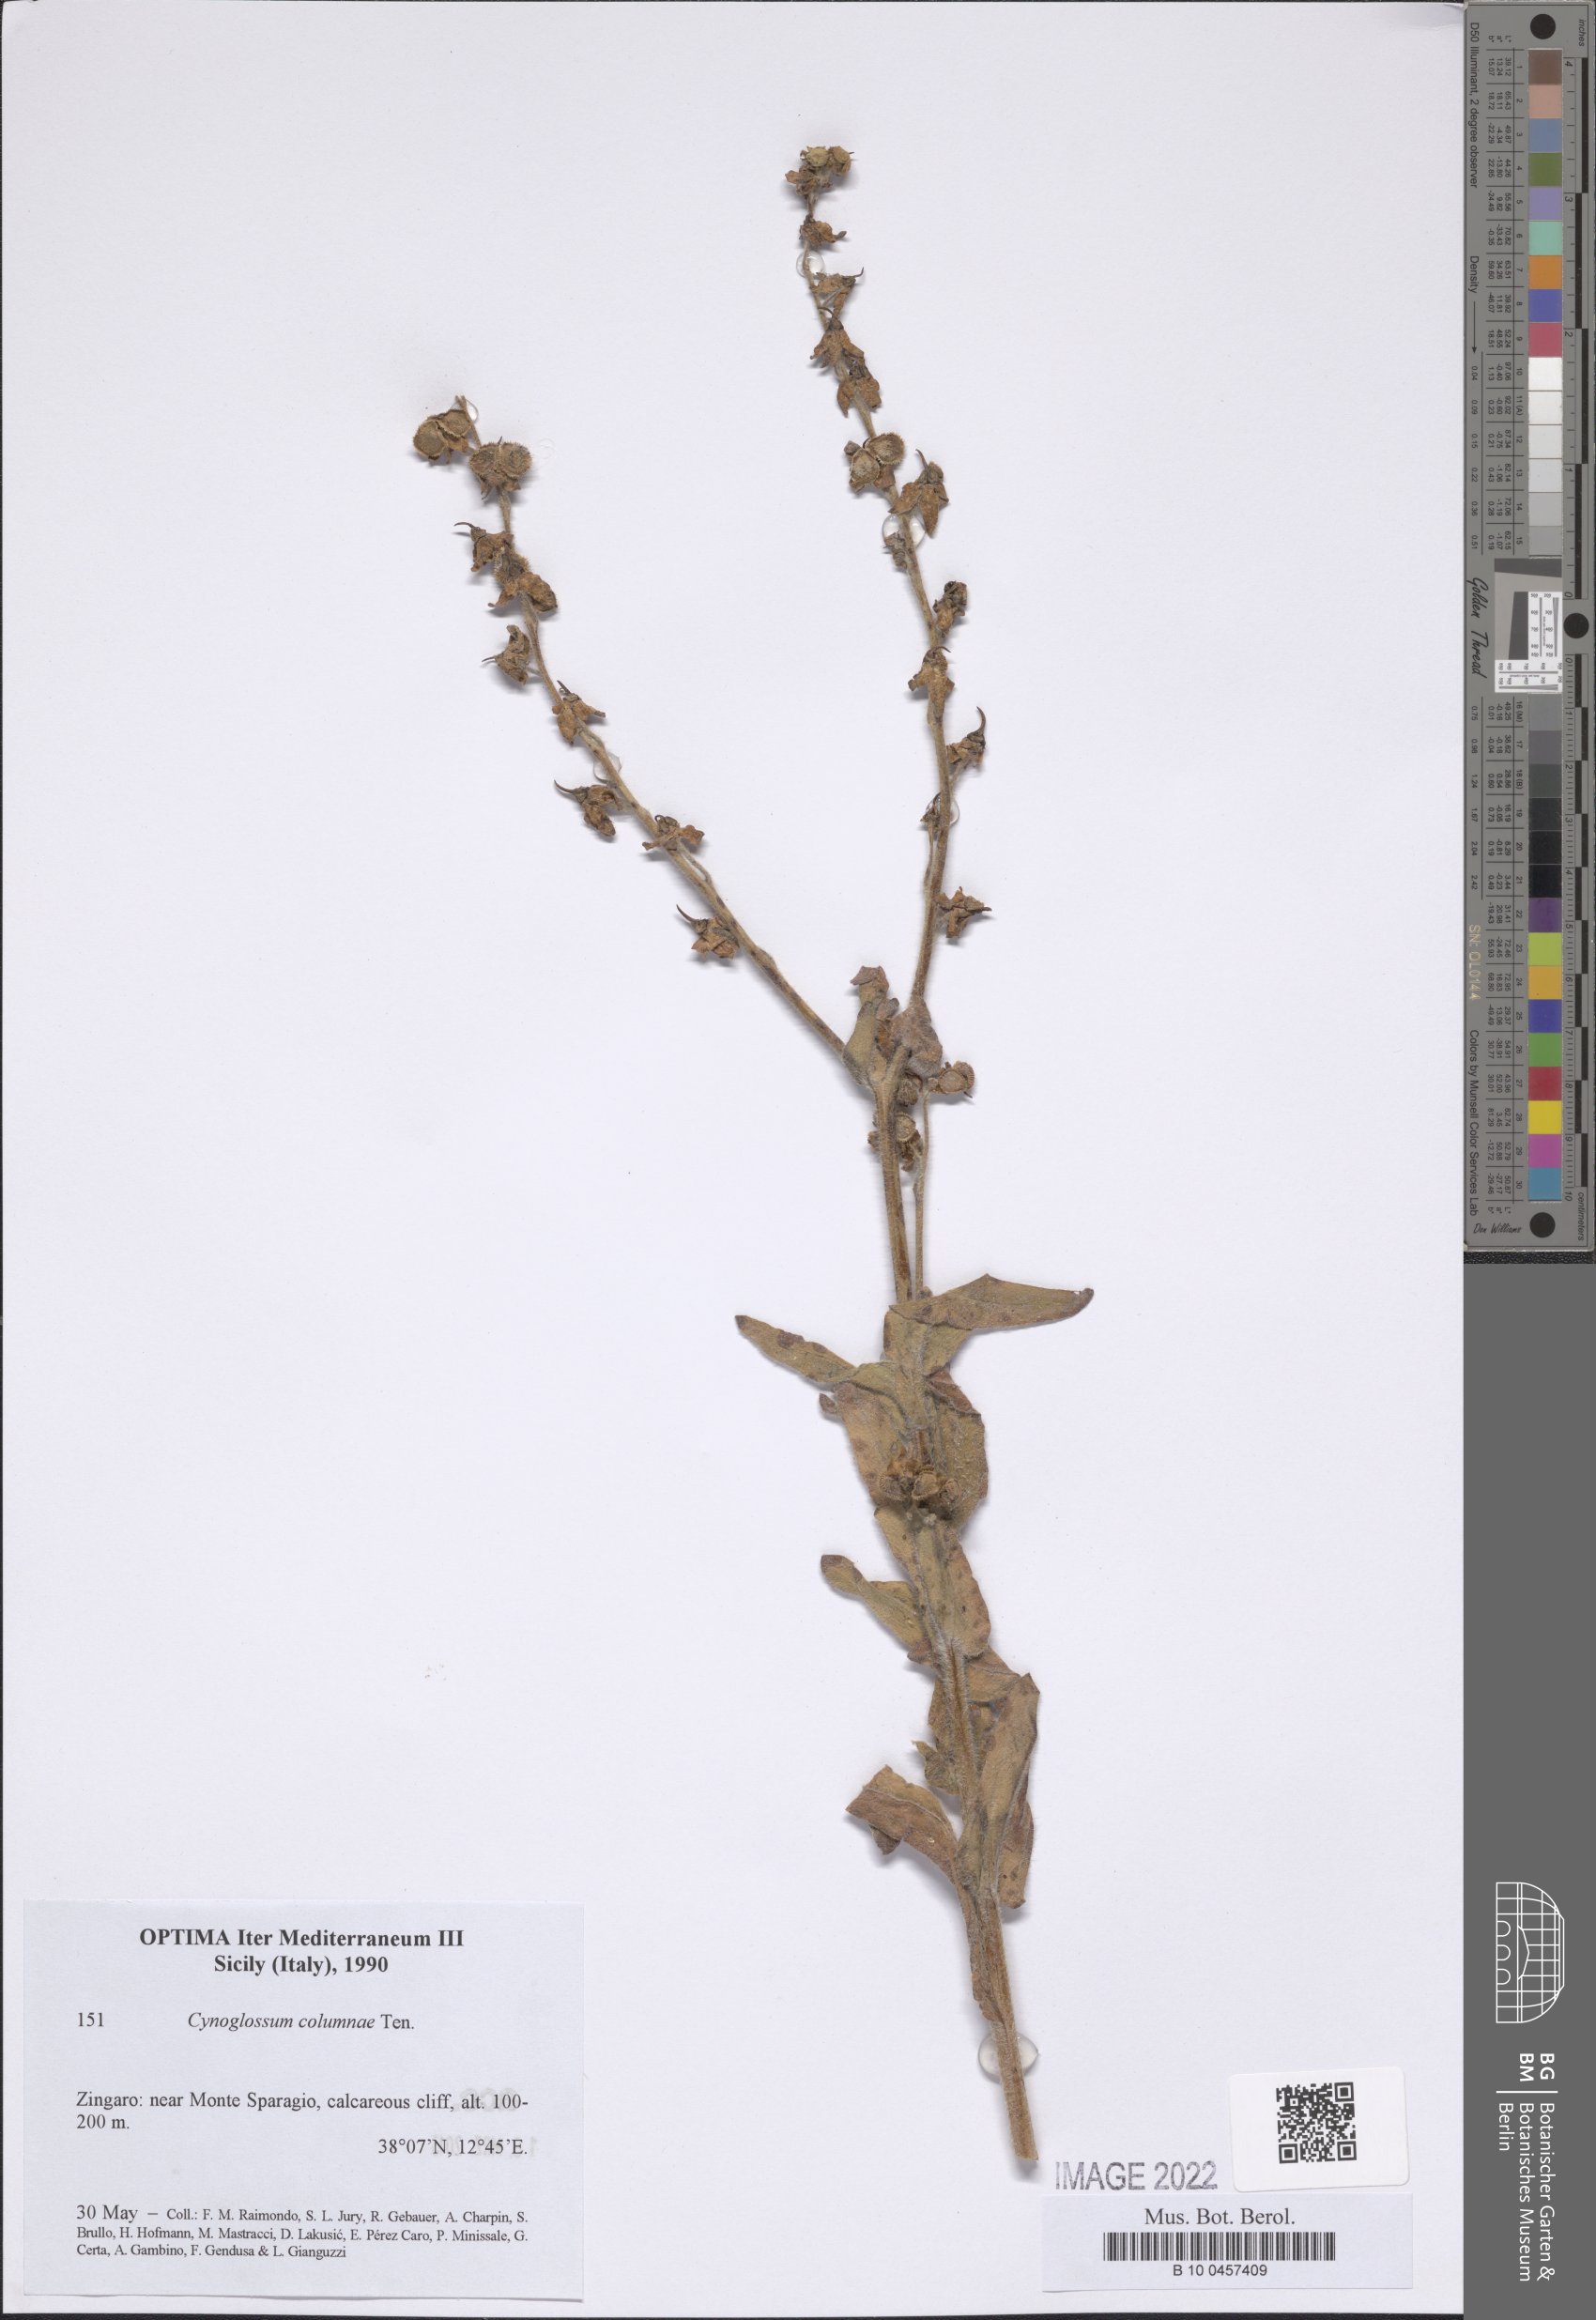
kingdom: Plantae
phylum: Tracheophyta
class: Magnoliopsida
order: Boraginales
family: Boraginaceae
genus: Rindera
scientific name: Rindera columnae
